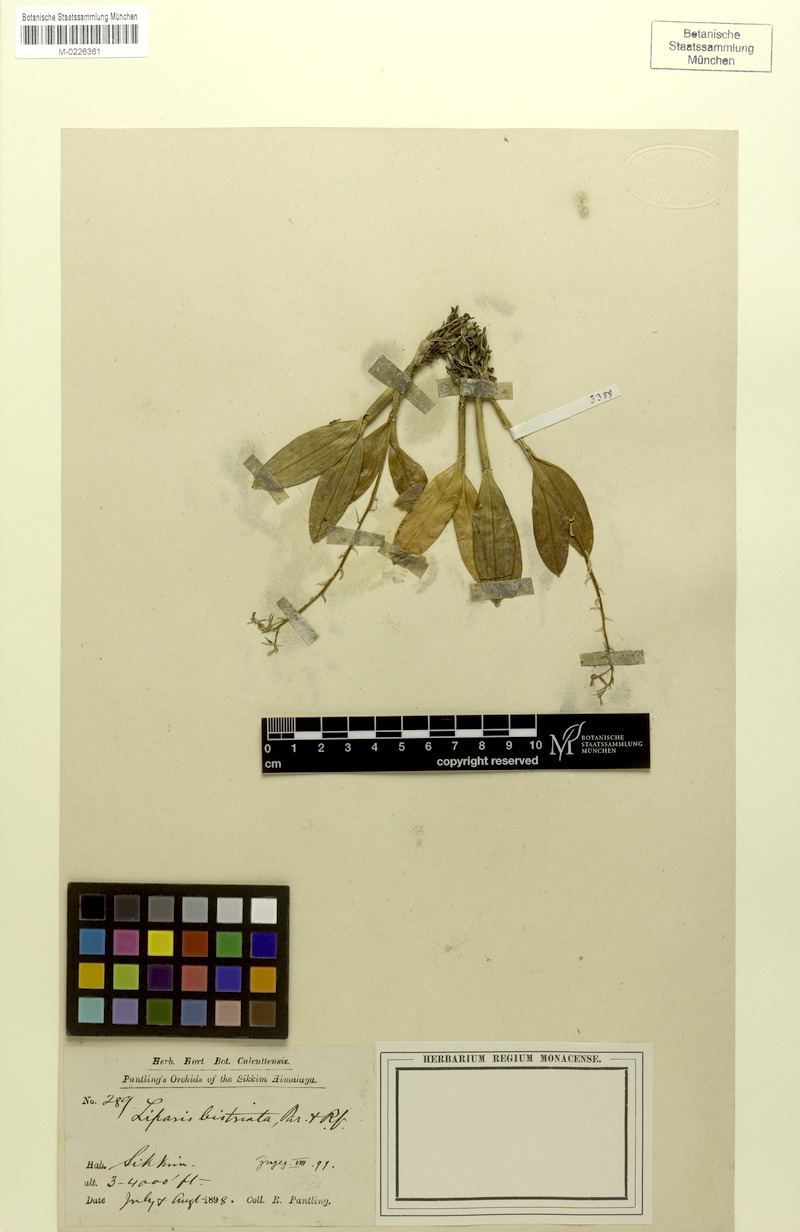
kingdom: Plantae
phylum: Tracheophyta
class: Liliopsida
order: Asparagales
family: Orchidaceae
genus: Liparis
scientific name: Liparis bistriata
